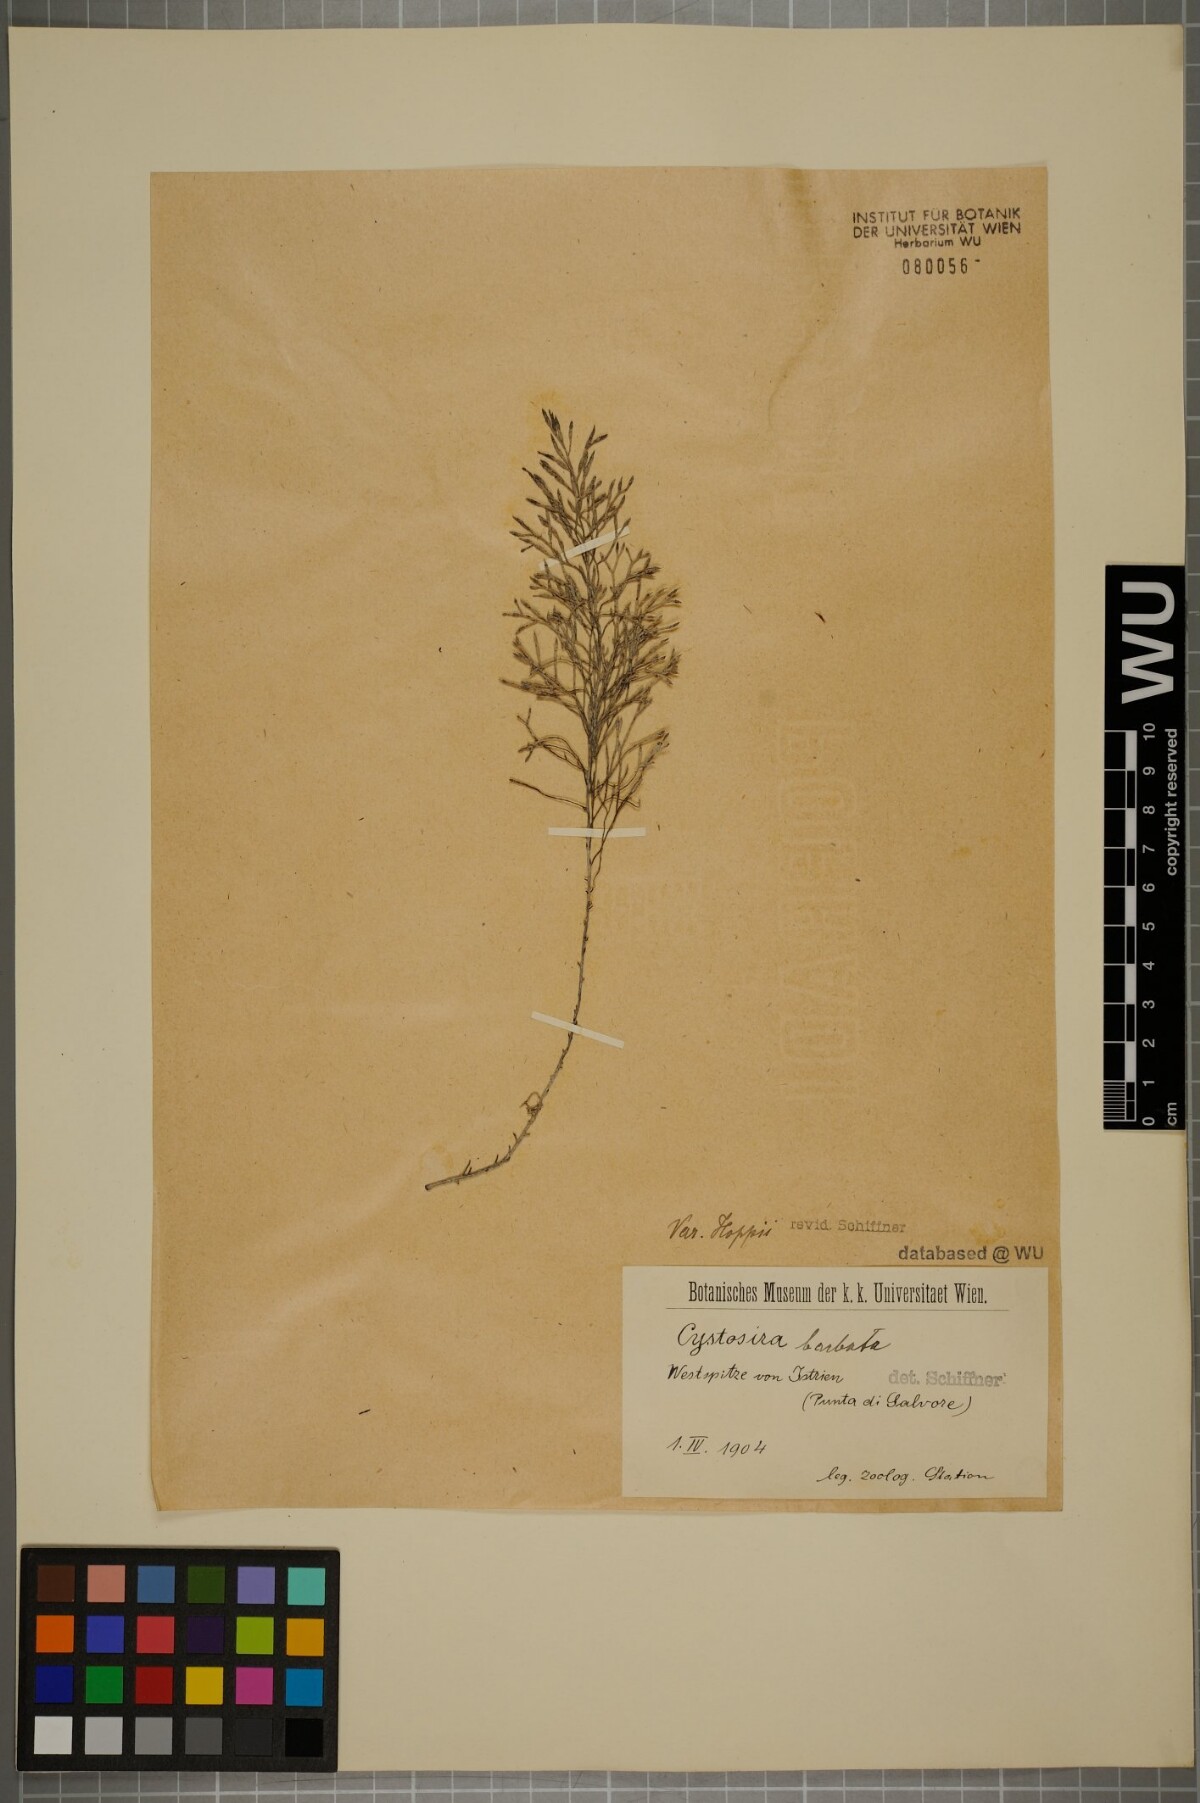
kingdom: Chromista
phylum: Ochrophyta
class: Phaeophyceae
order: Fucales
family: Sargassaceae
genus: Cystoseira
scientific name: Cystoseira Gongolaria barbata
